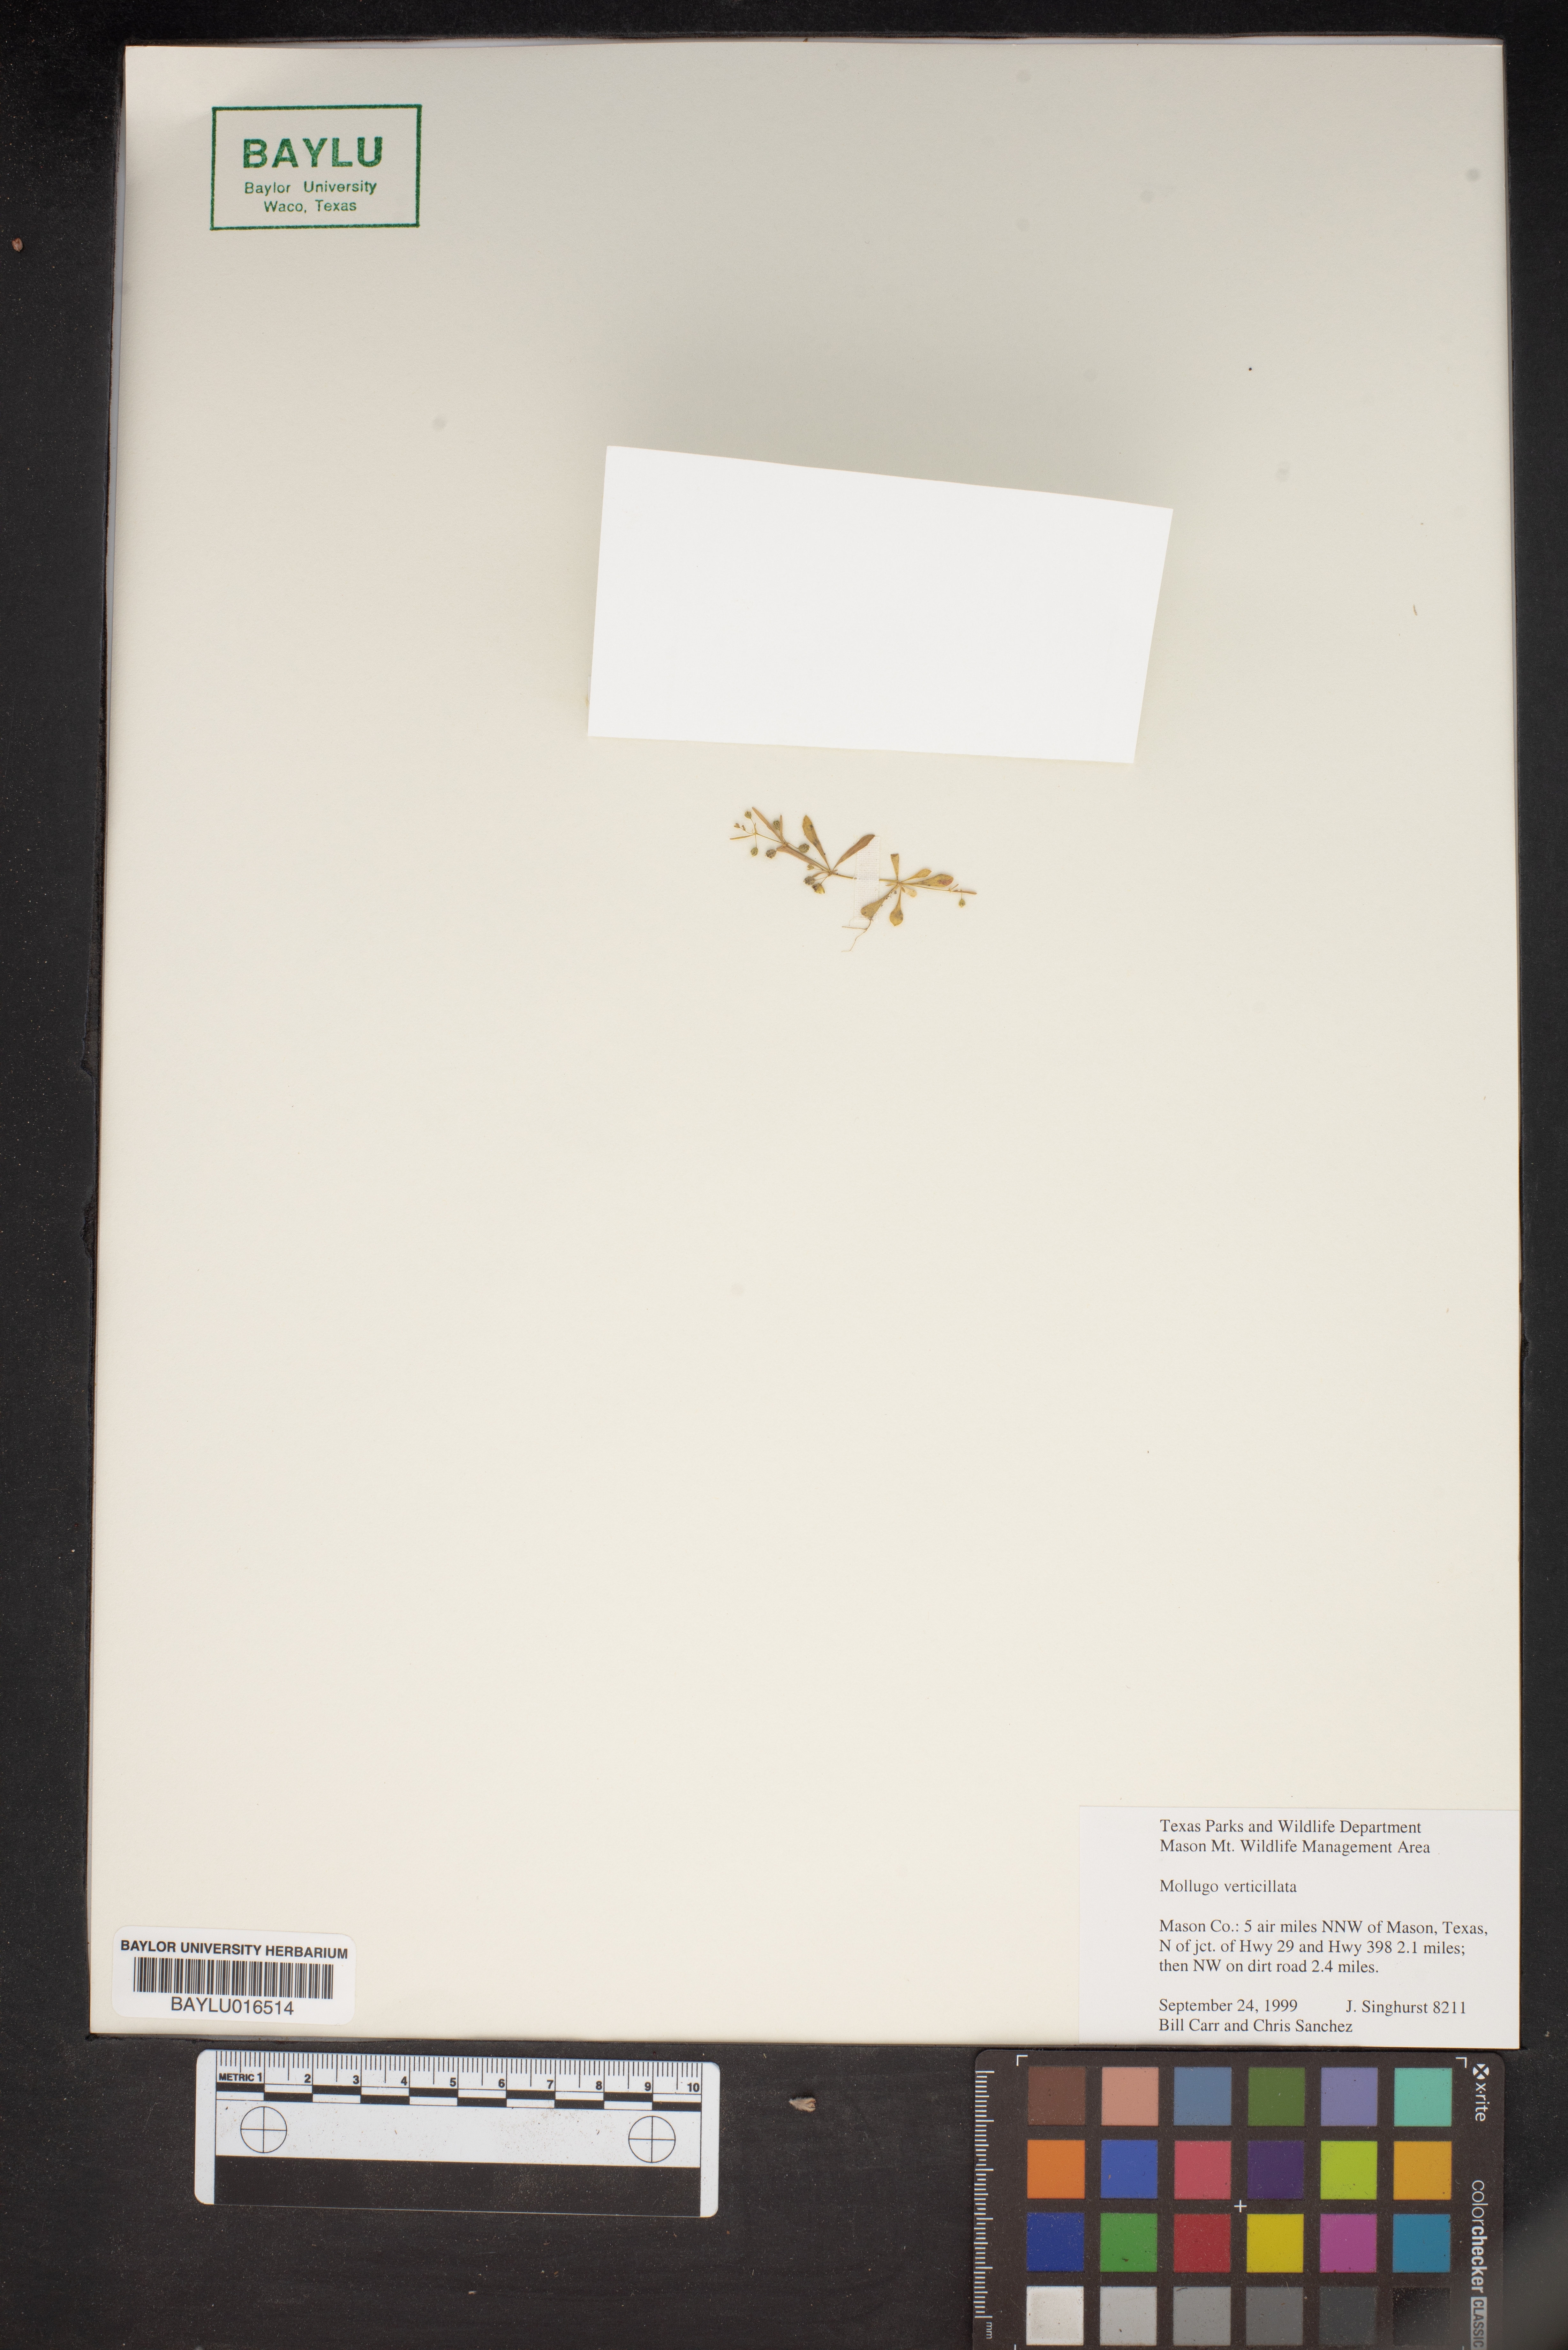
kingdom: Plantae
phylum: Tracheophyta
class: Magnoliopsida
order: Caryophyllales
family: Molluginaceae
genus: Mollugo
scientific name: Mollugo verticillata
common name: Green carpetweed
